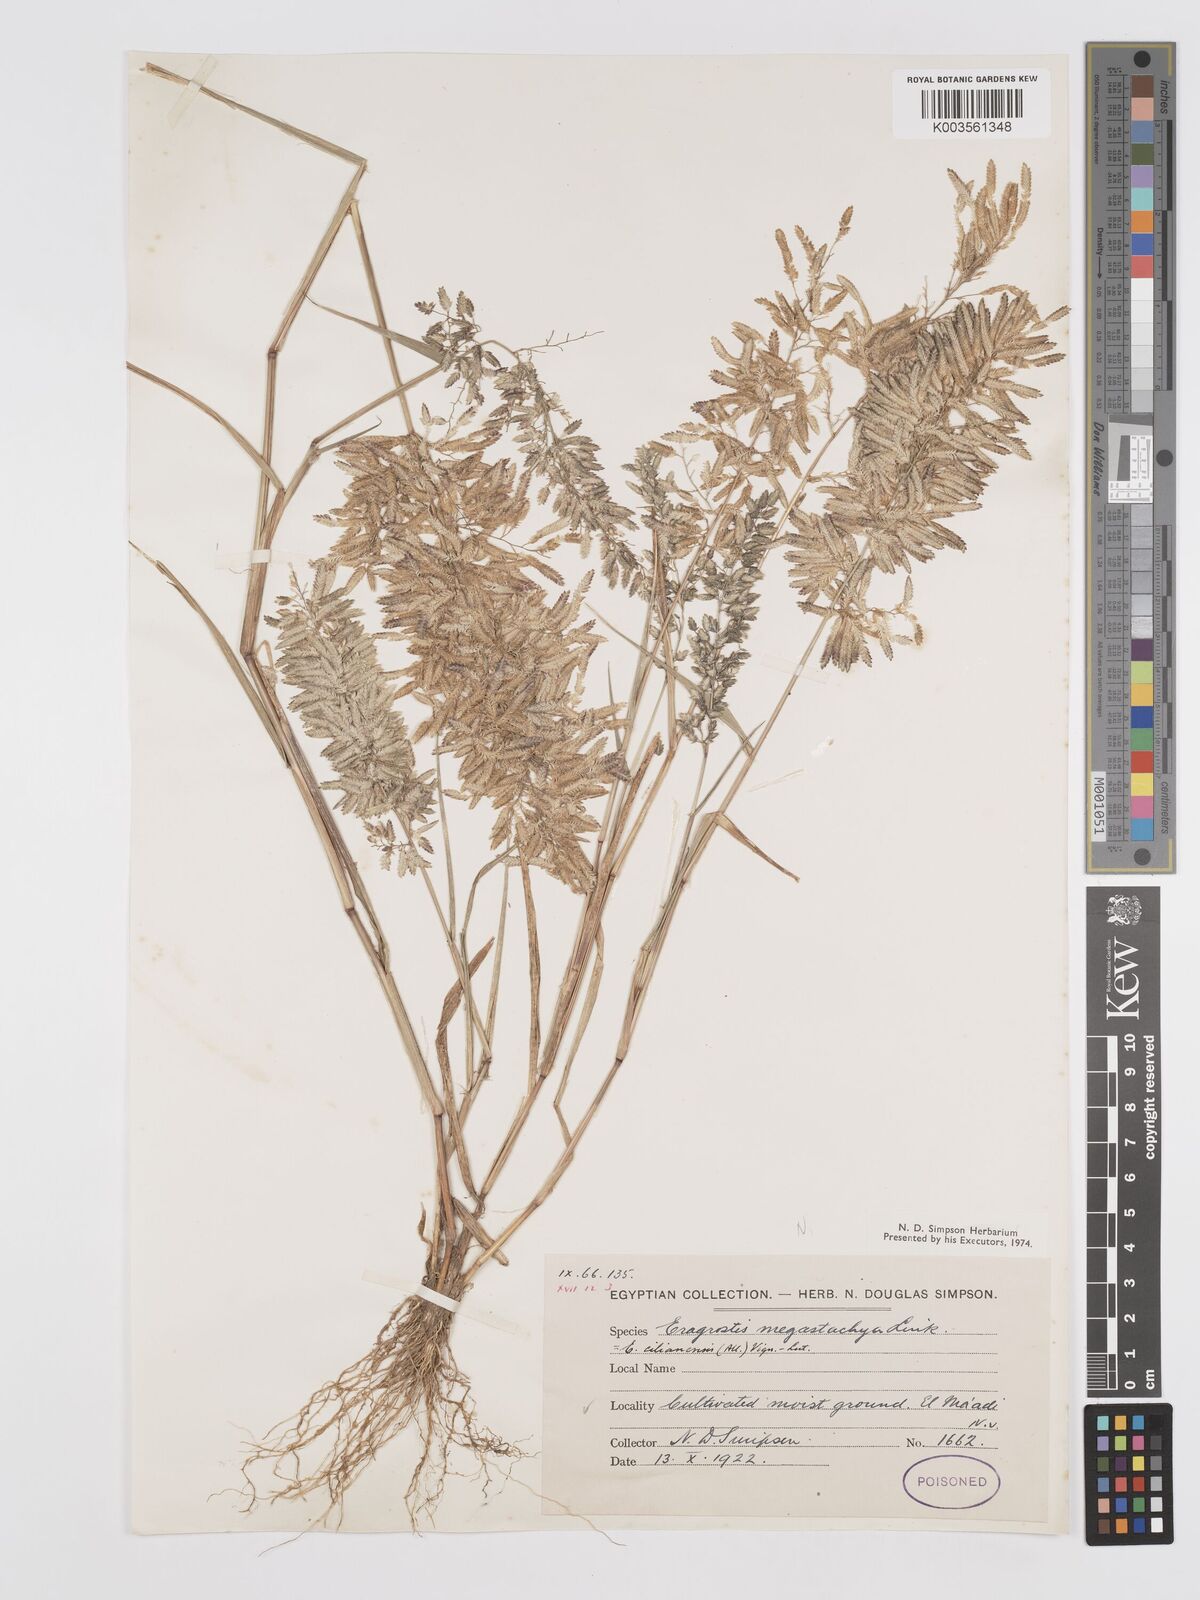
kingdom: Plantae
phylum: Tracheophyta
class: Liliopsida
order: Poales
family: Poaceae
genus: Eragrostis
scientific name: Eragrostis cilianensis
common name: Stinkgrass
